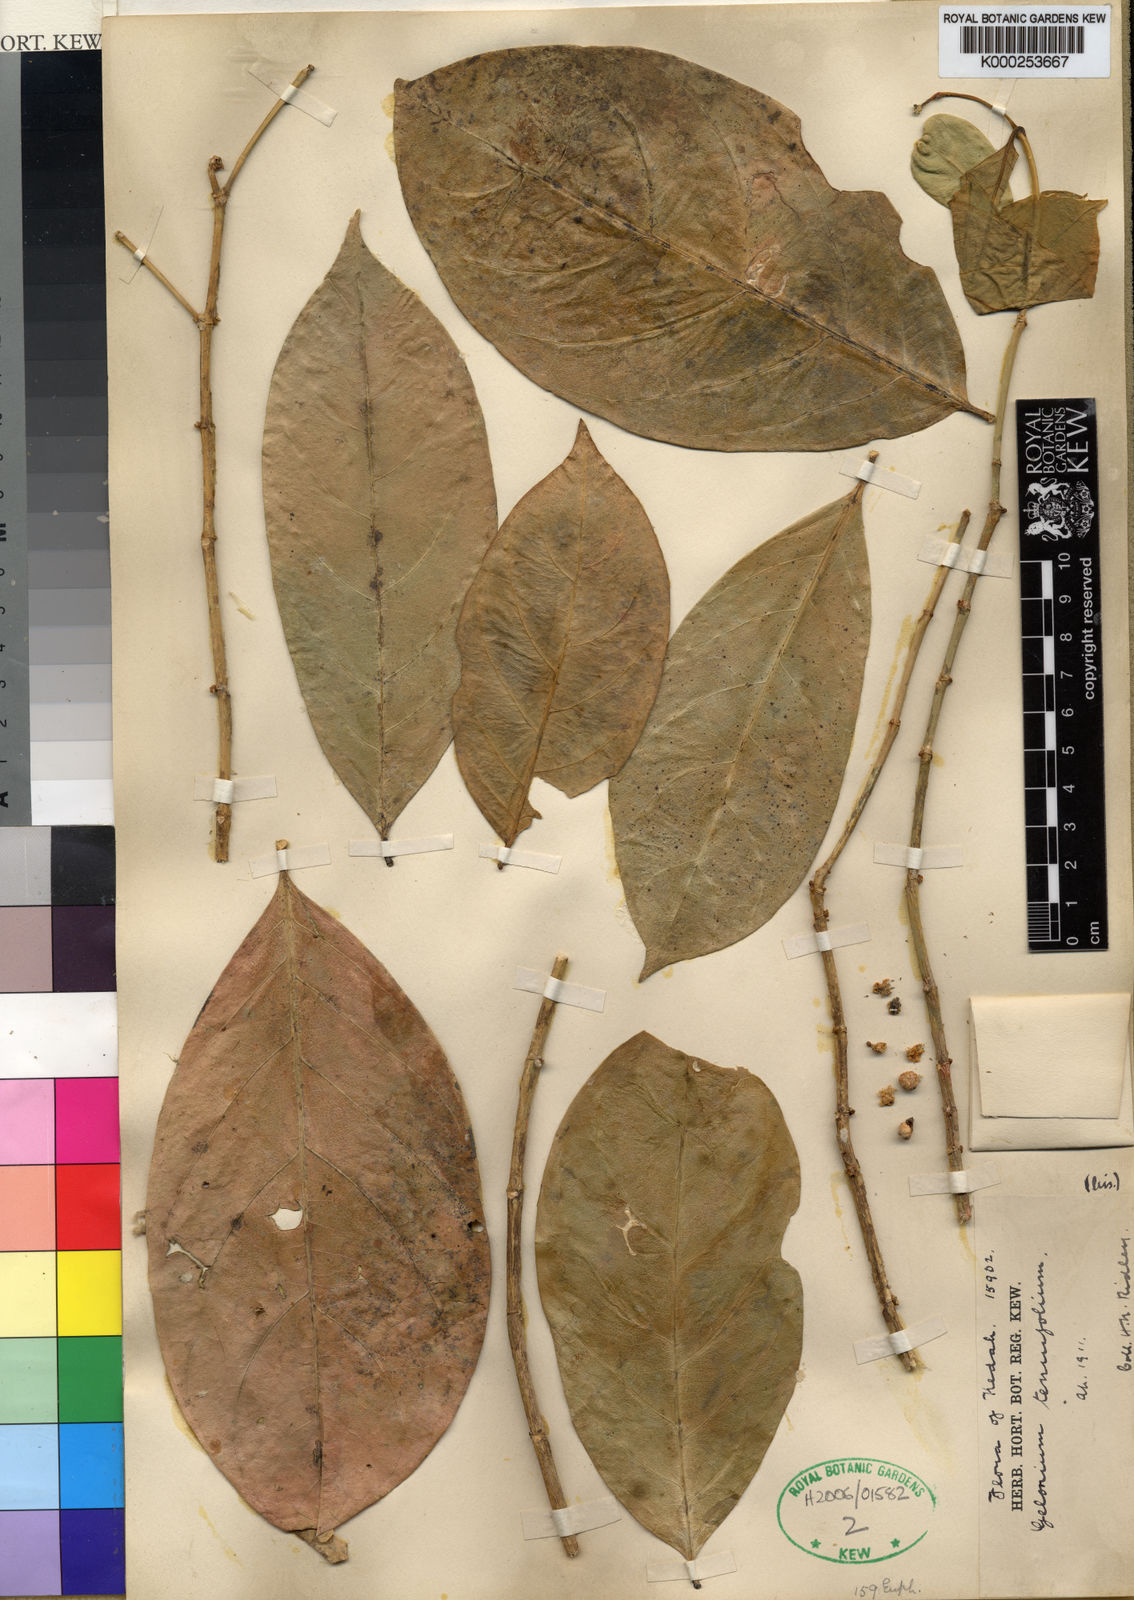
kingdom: Plantae
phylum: Tracheophyta
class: Magnoliopsida
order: Malpighiales
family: Euphorbiaceae
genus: Suregada
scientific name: Suregada multiflora
